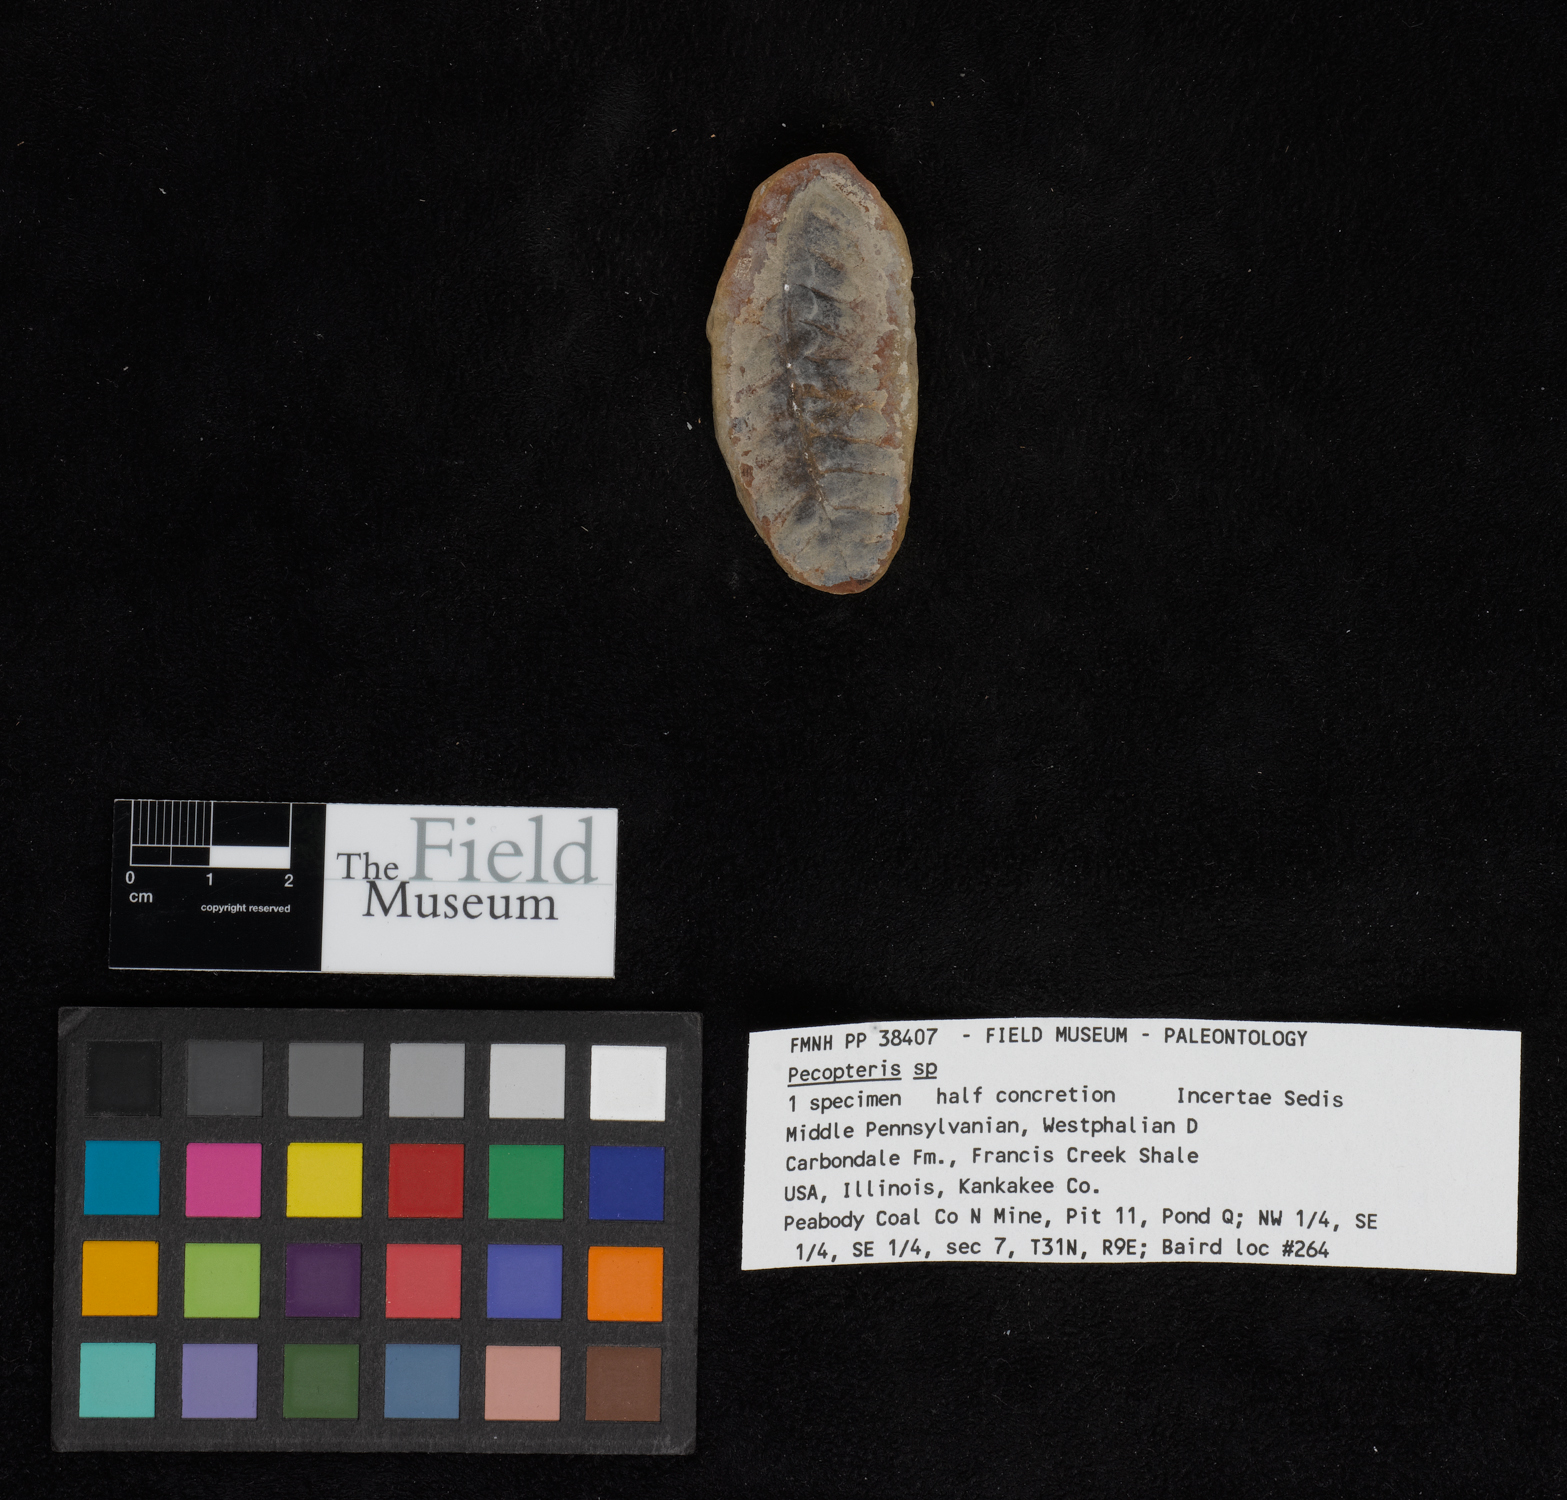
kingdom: Plantae
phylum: Tracheophyta
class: Polypodiopsida
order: Marattiales
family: Asterothecaceae
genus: Pecopteris
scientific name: Pecopteris
